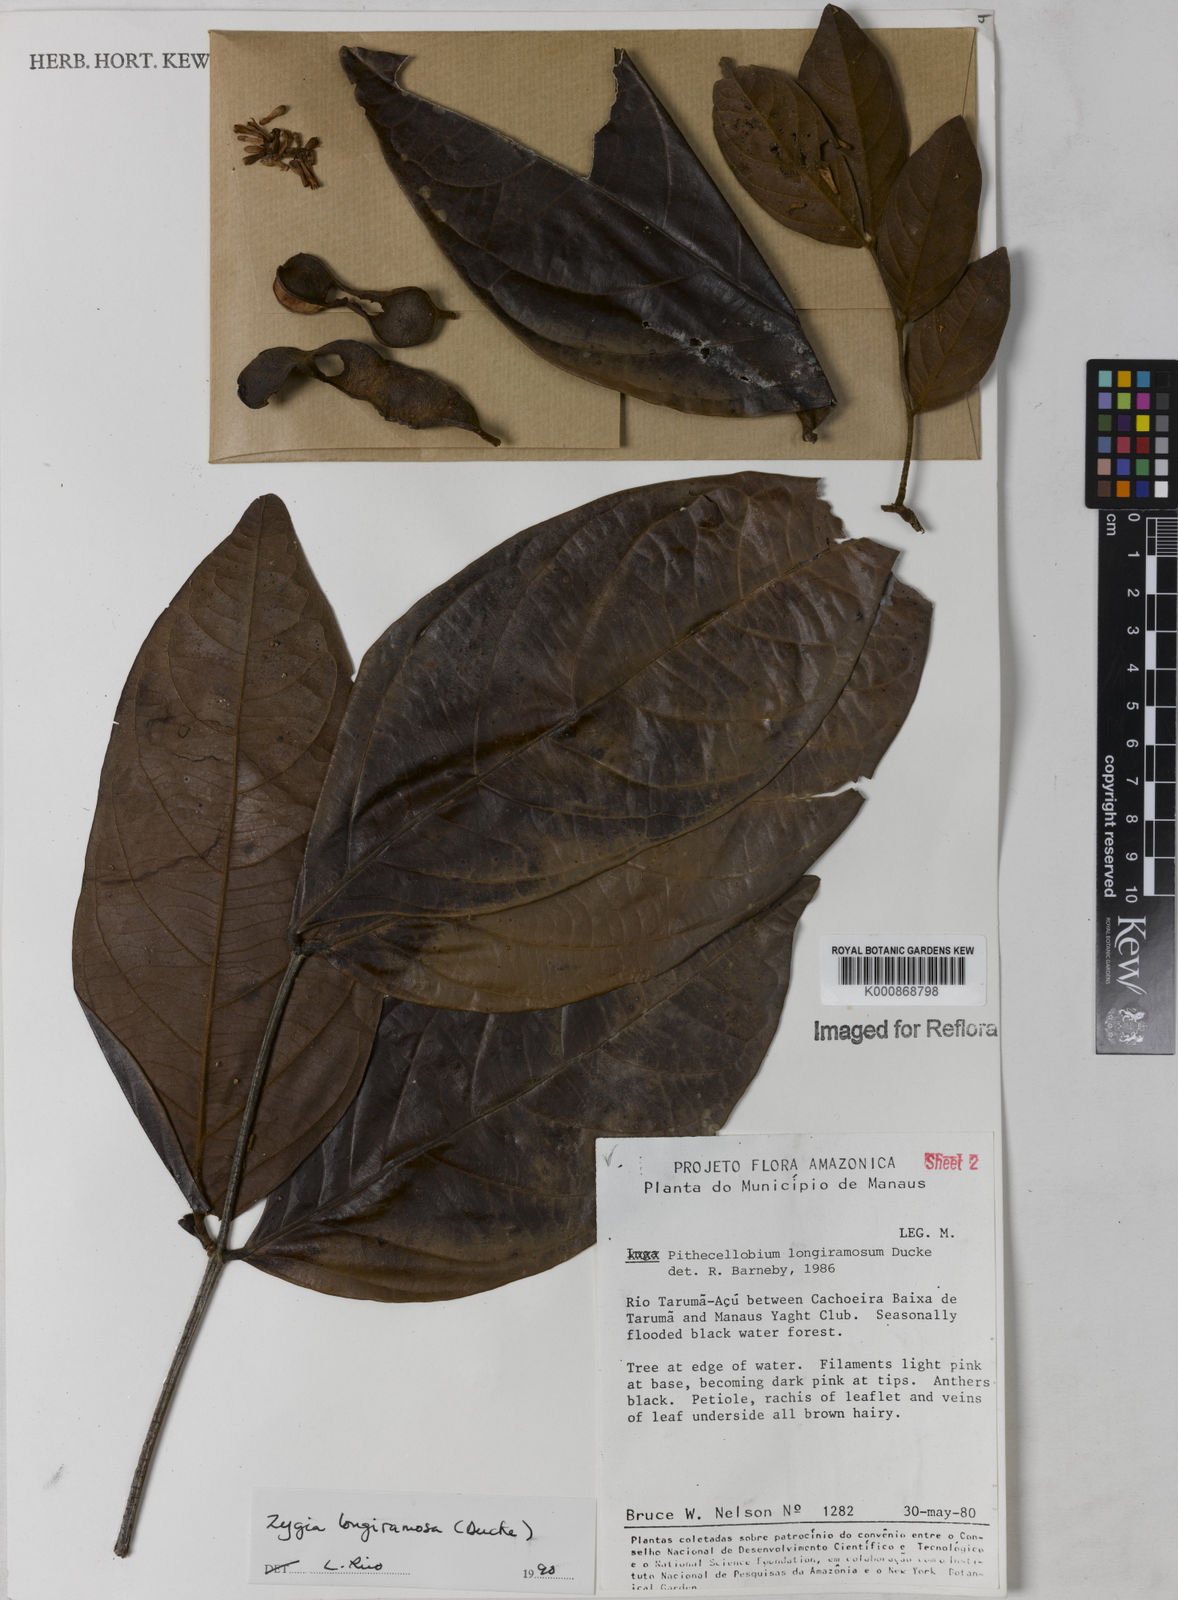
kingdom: Plantae
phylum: Tracheophyta
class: Magnoliopsida
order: Fabales
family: Fabaceae
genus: Zygia
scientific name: Zygia inaequalis
